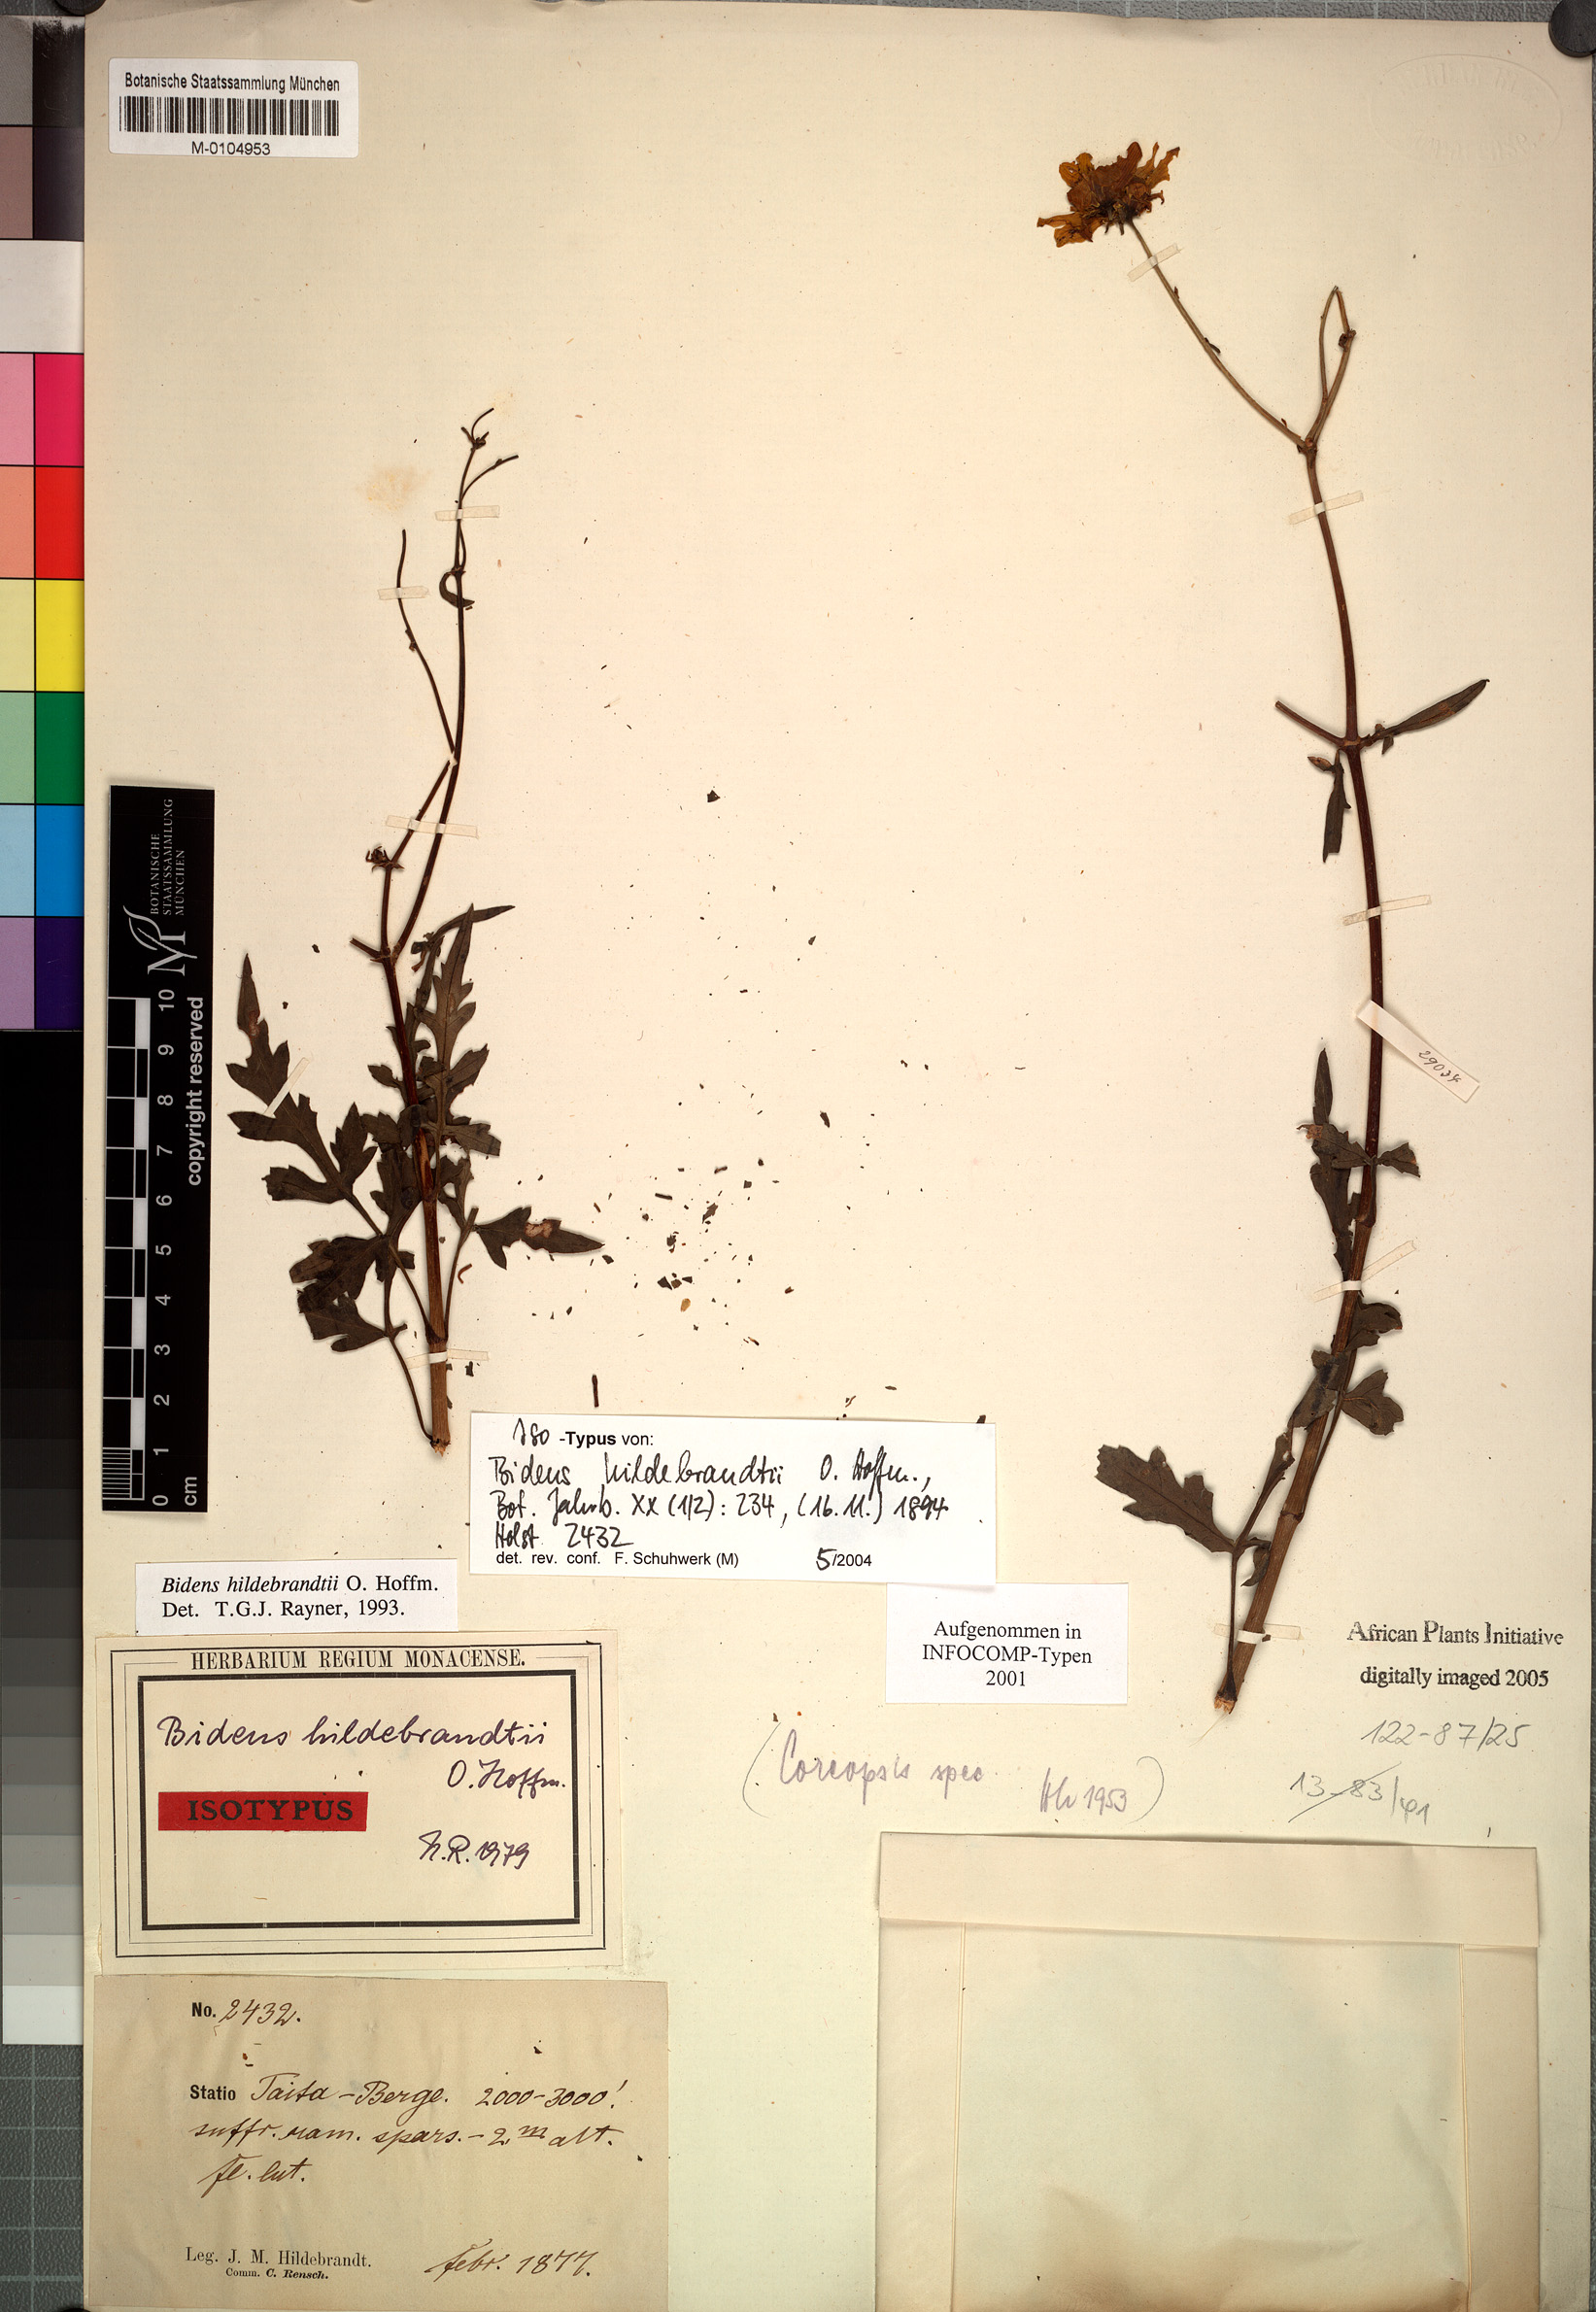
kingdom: Plantae
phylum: Tracheophyta
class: Magnoliopsida
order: Asterales
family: Asteraceae
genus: Bidens
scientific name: Bidens hildebrandtii
